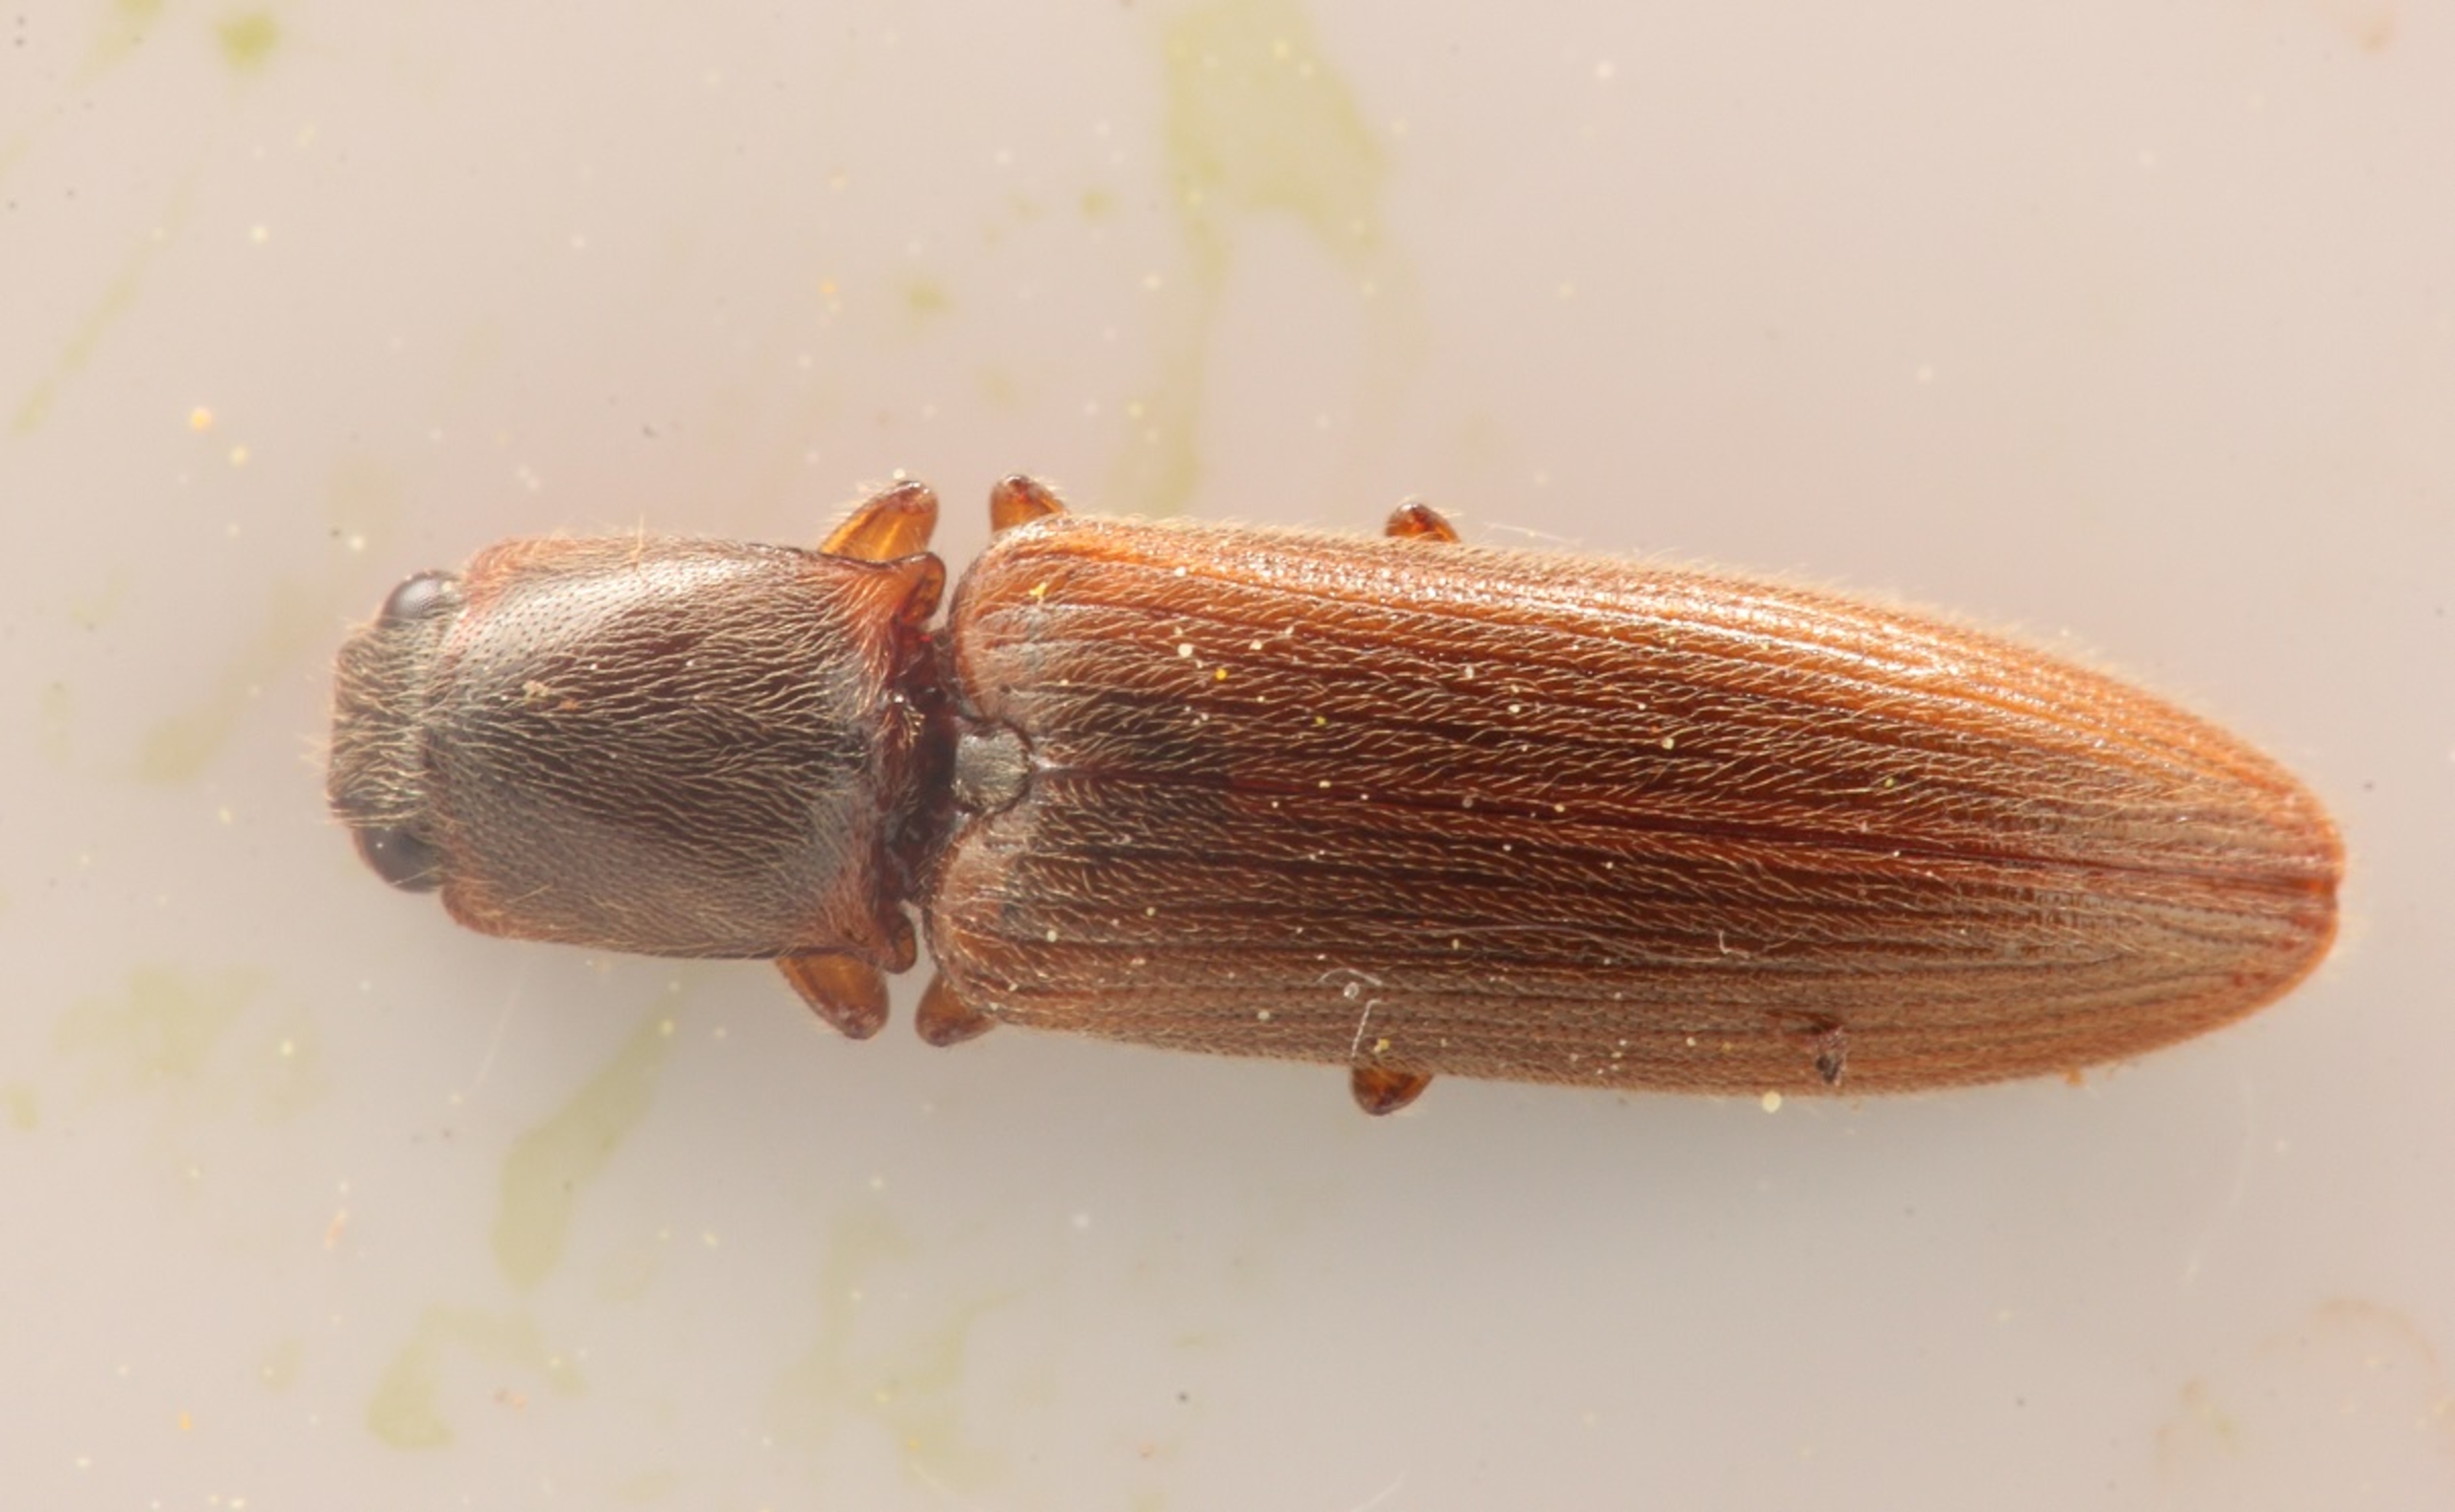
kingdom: Animalia
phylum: Arthropoda
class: Insecta
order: Coleoptera
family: Elateridae
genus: Athous
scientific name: Athous subfuscus
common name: Liden busksmælder
